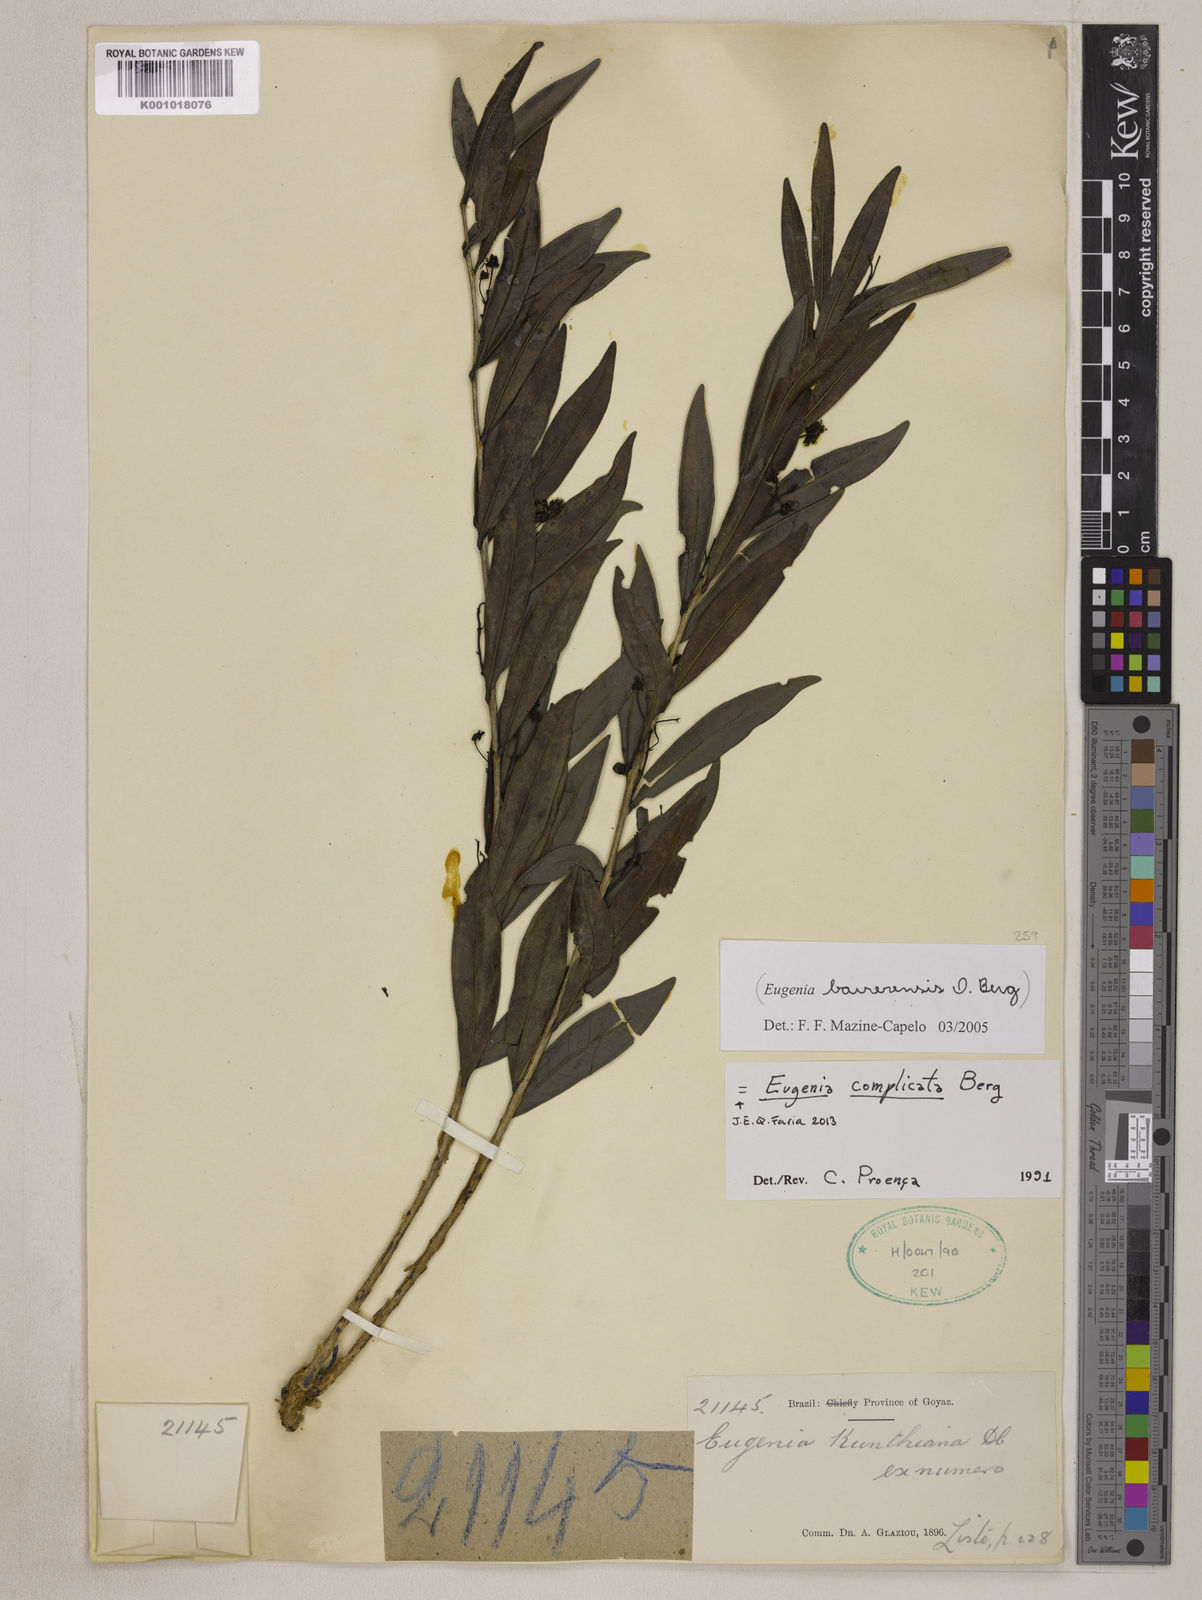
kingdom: Plantae
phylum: Tracheophyta
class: Magnoliopsida
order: Myrtales
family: Myrtaceae
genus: Eugenia
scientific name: Eugenia complicata
